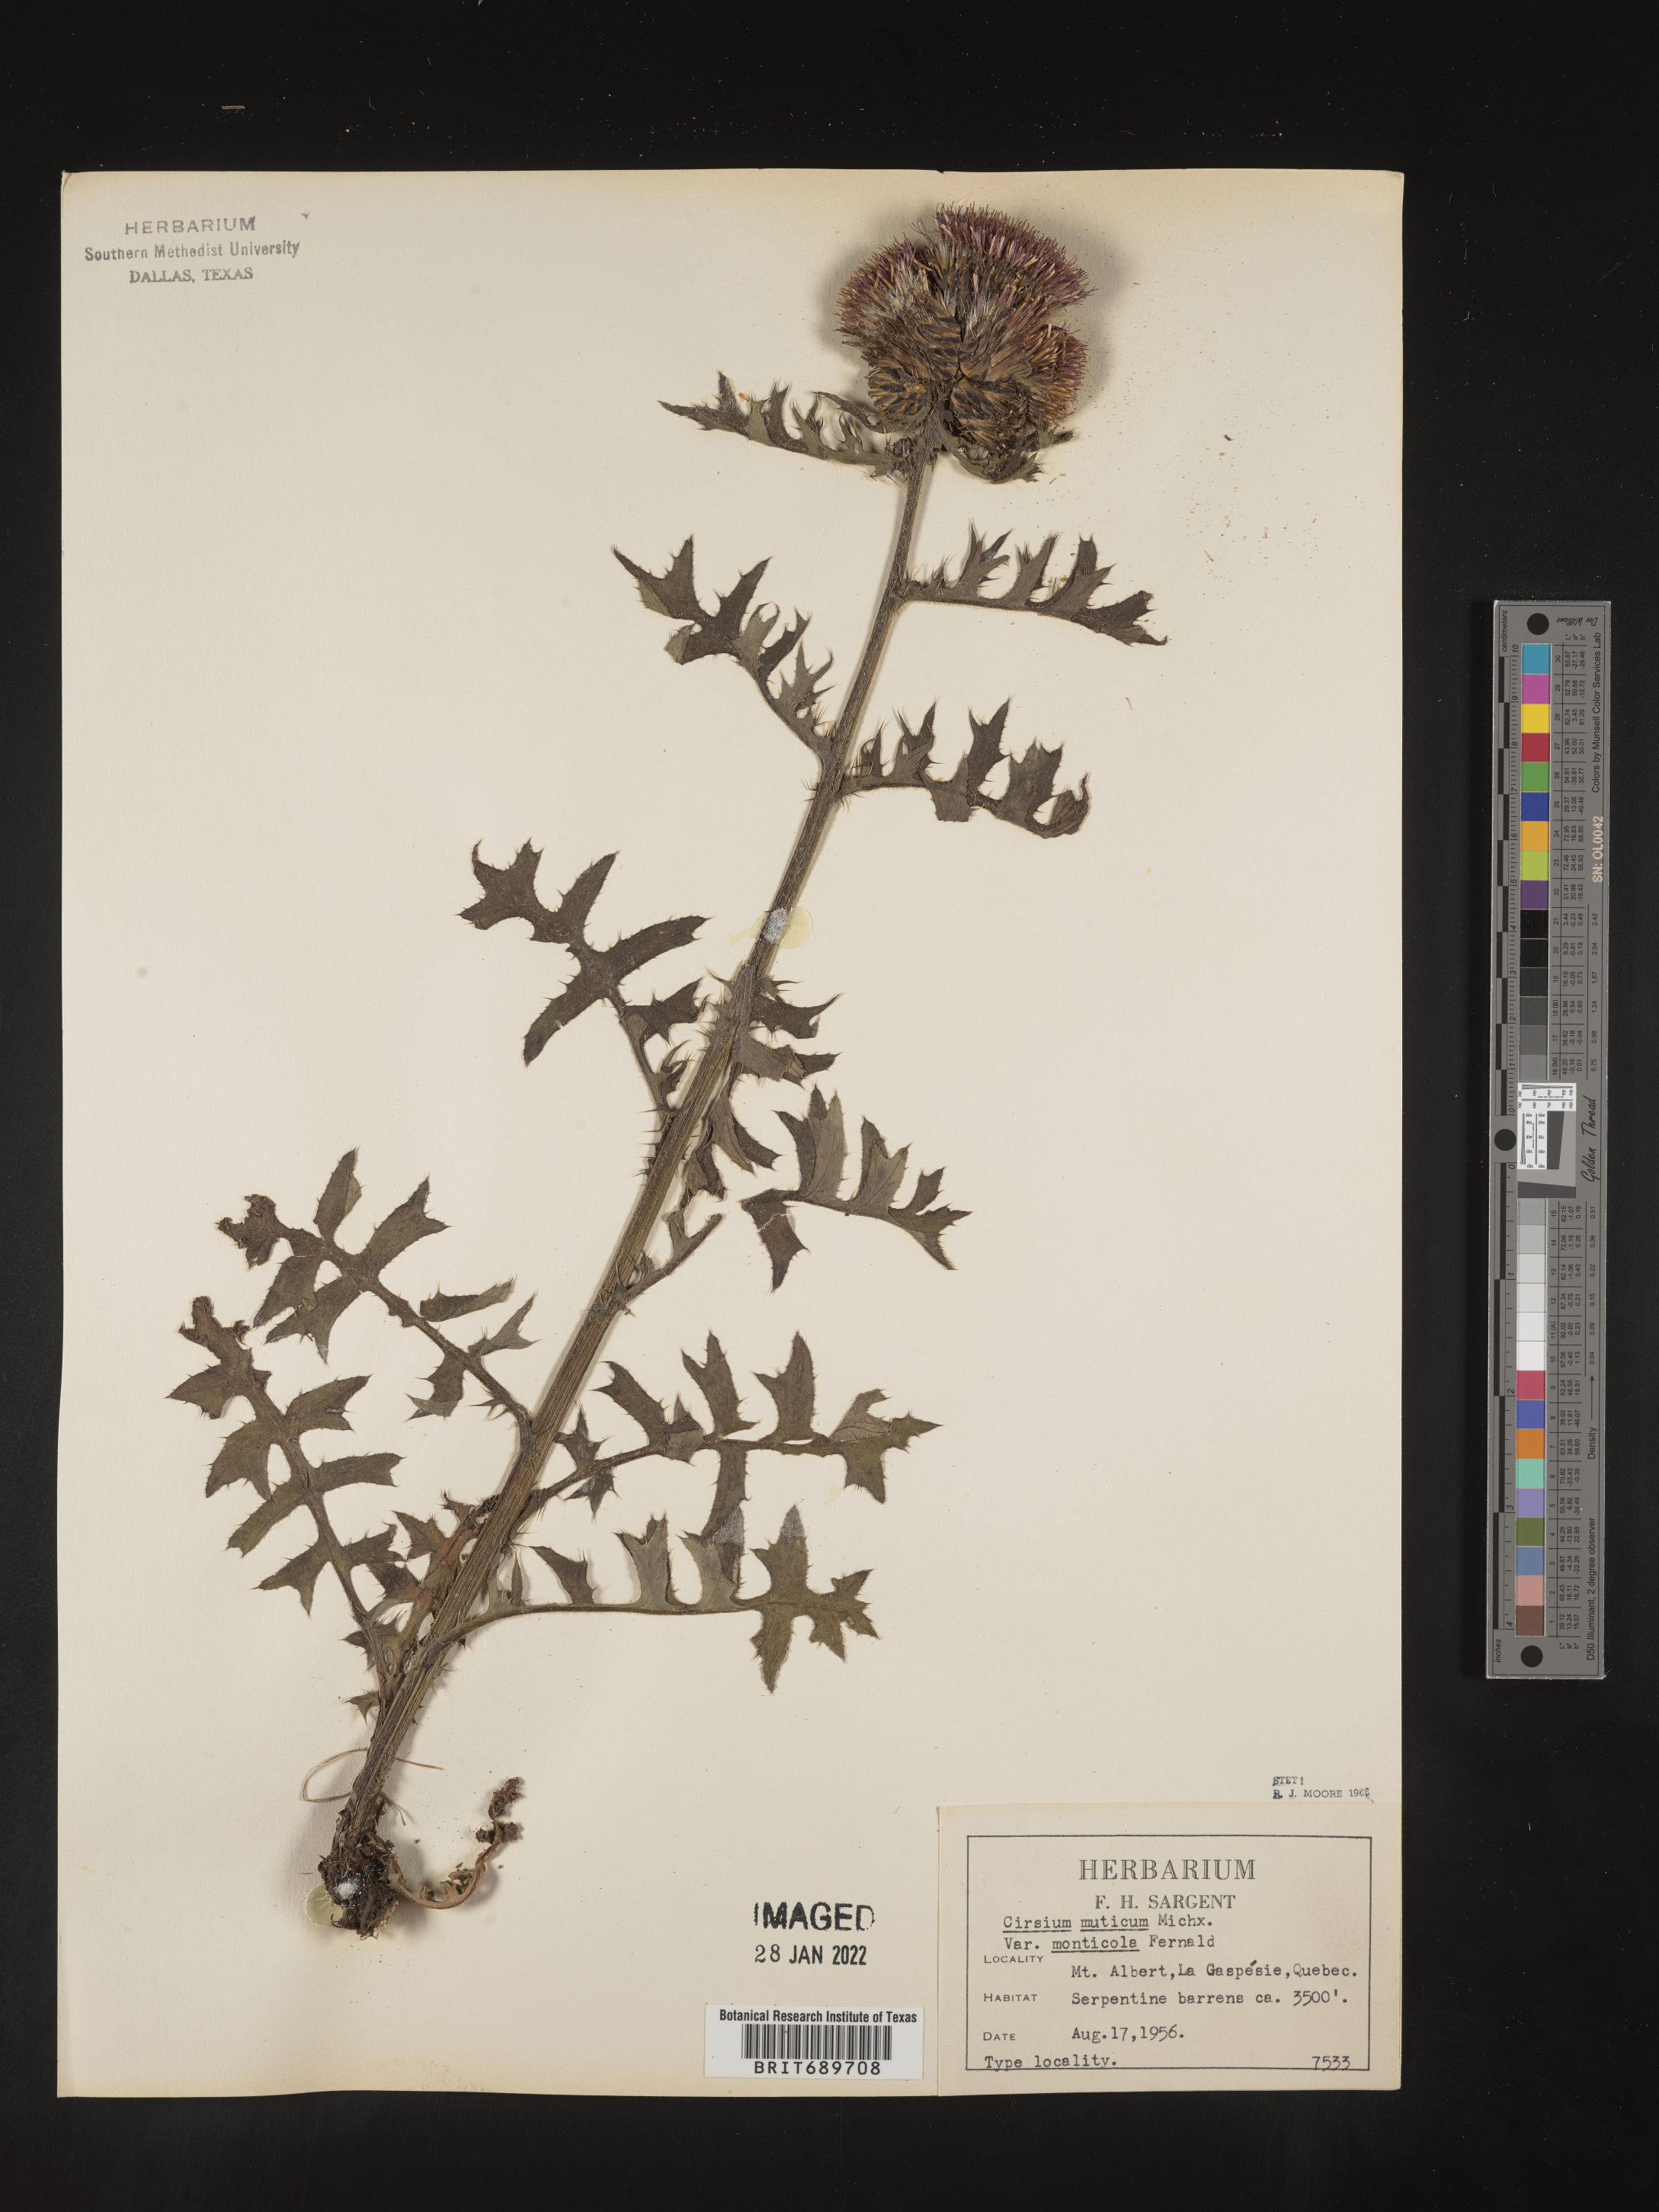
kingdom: Plantae
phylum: Tracheophyta
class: Magnoliopsida
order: Asterales
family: Asteraceae
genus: Cirsium
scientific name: Cirsium muticum
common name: Dunce-nettle
